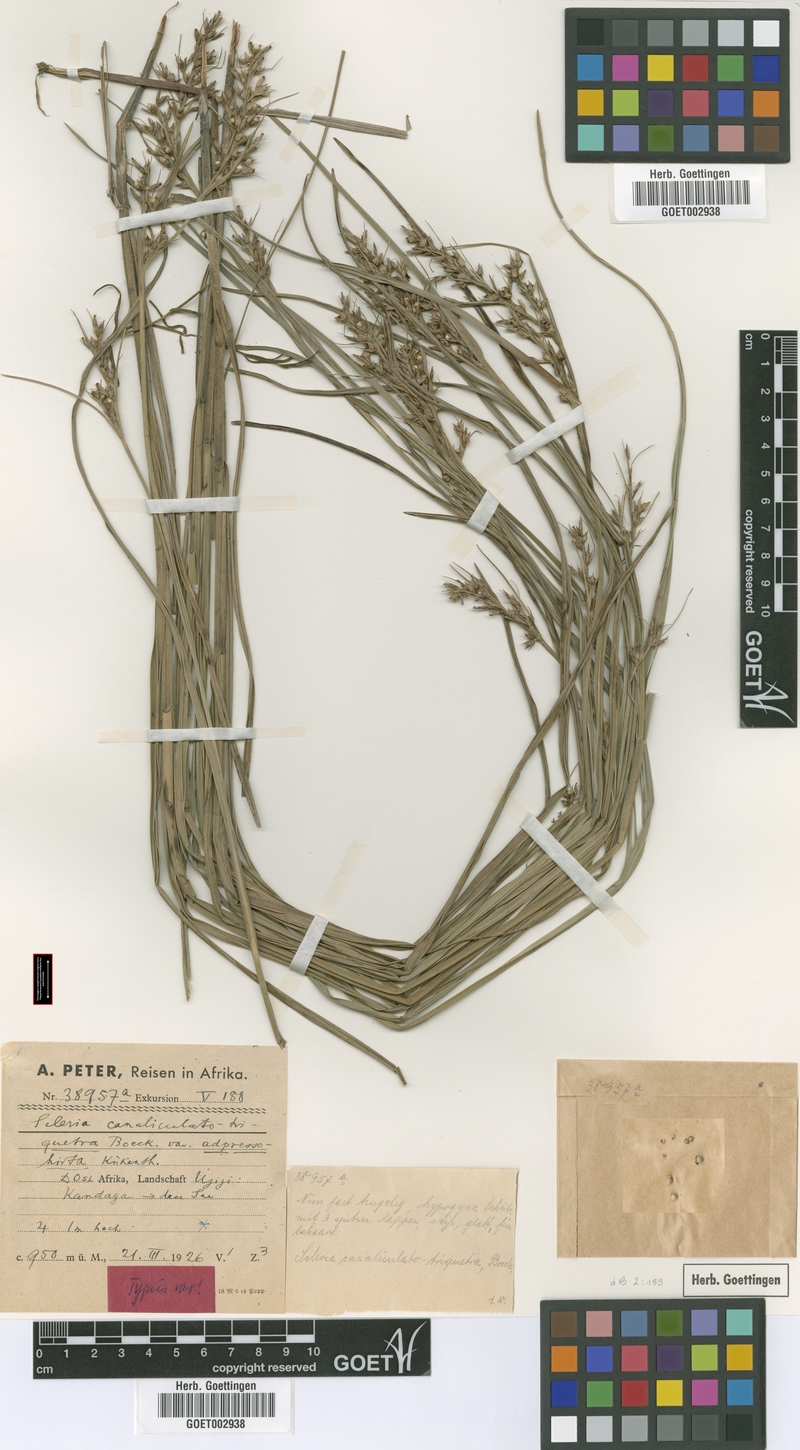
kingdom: Plantae
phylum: Tracheophyta
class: Liliopsida
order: Poales
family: Cyperaceae
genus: Scleria
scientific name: Scleria adpressohirta
